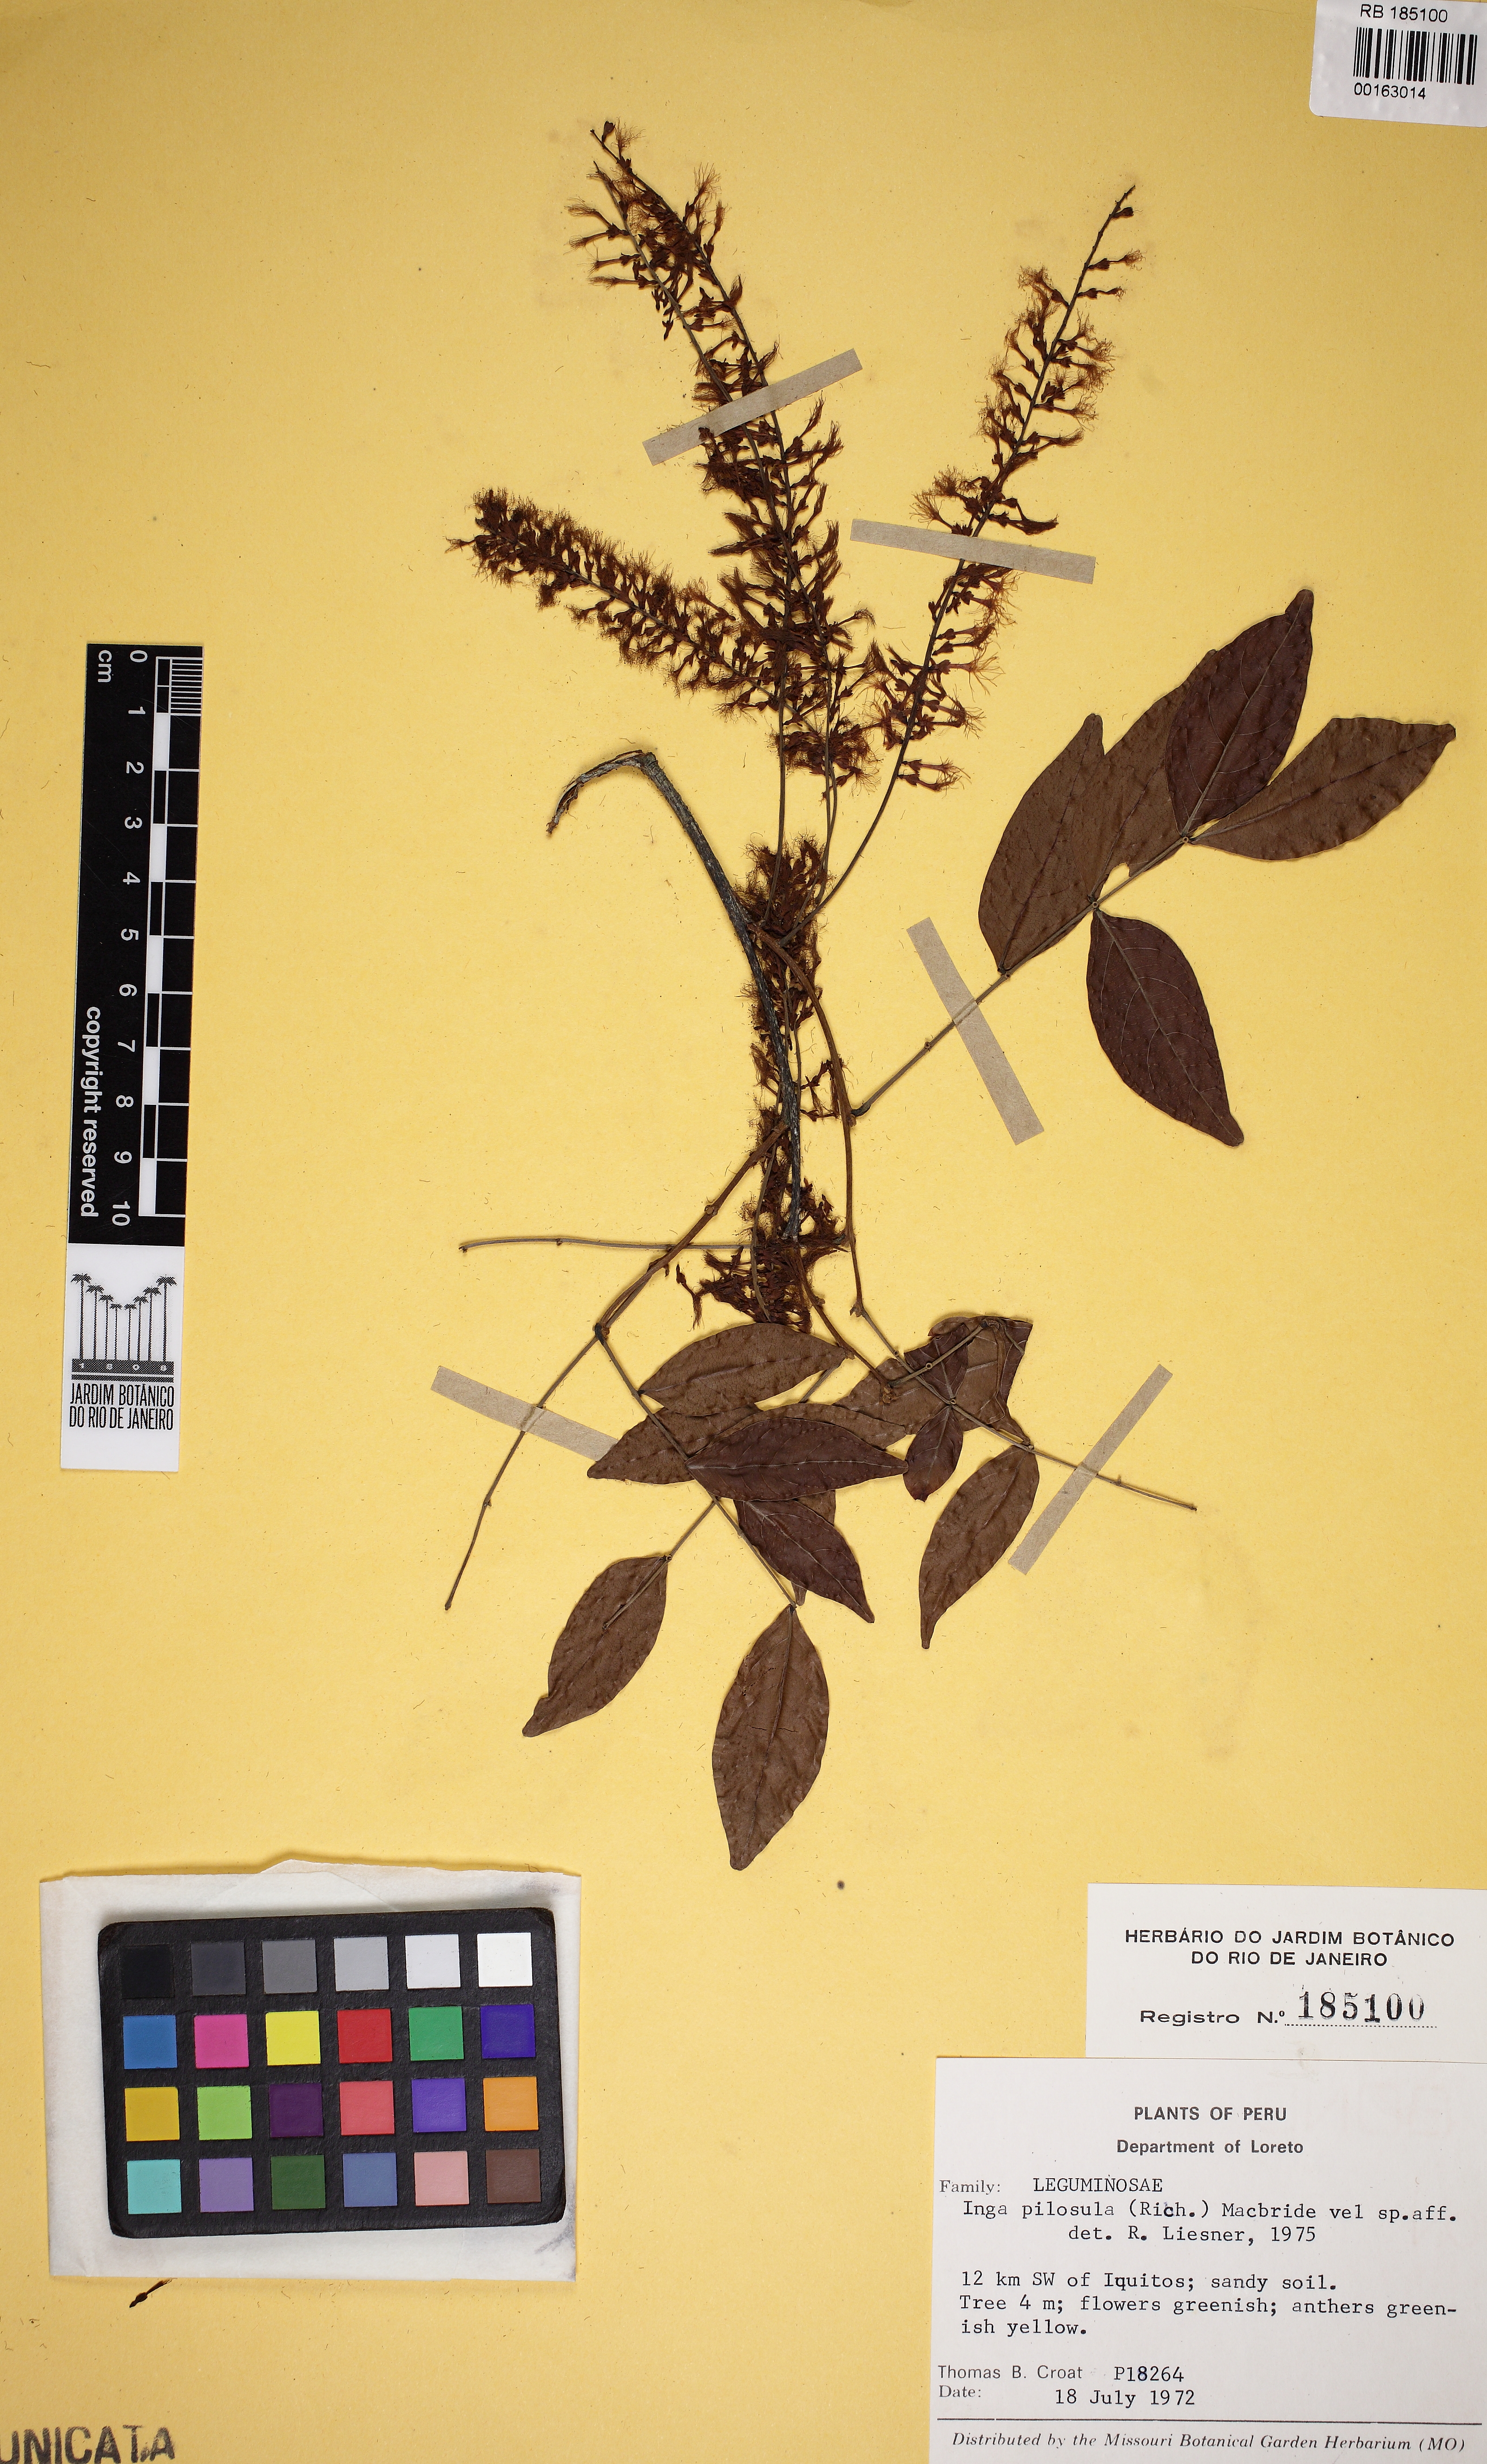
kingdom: Plantae
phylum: Tracheophyta
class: Magnoliopsida
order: Fabales
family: Fabaceae
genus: Inga
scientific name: Inga pilosula
